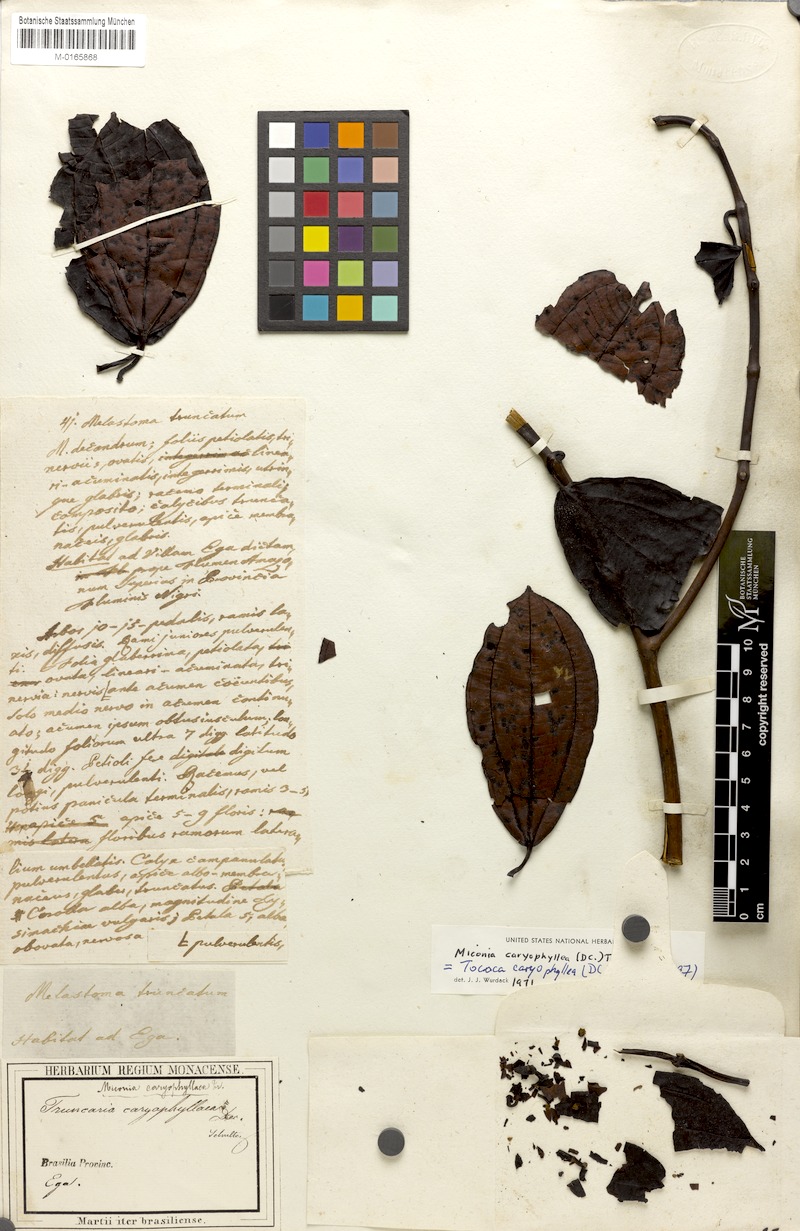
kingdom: Plantae
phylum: Tracheophyta
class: Magnoliopsida
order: Myrtales
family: Melastomataceae
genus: Miconia
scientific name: Miconia caryophyllacea
